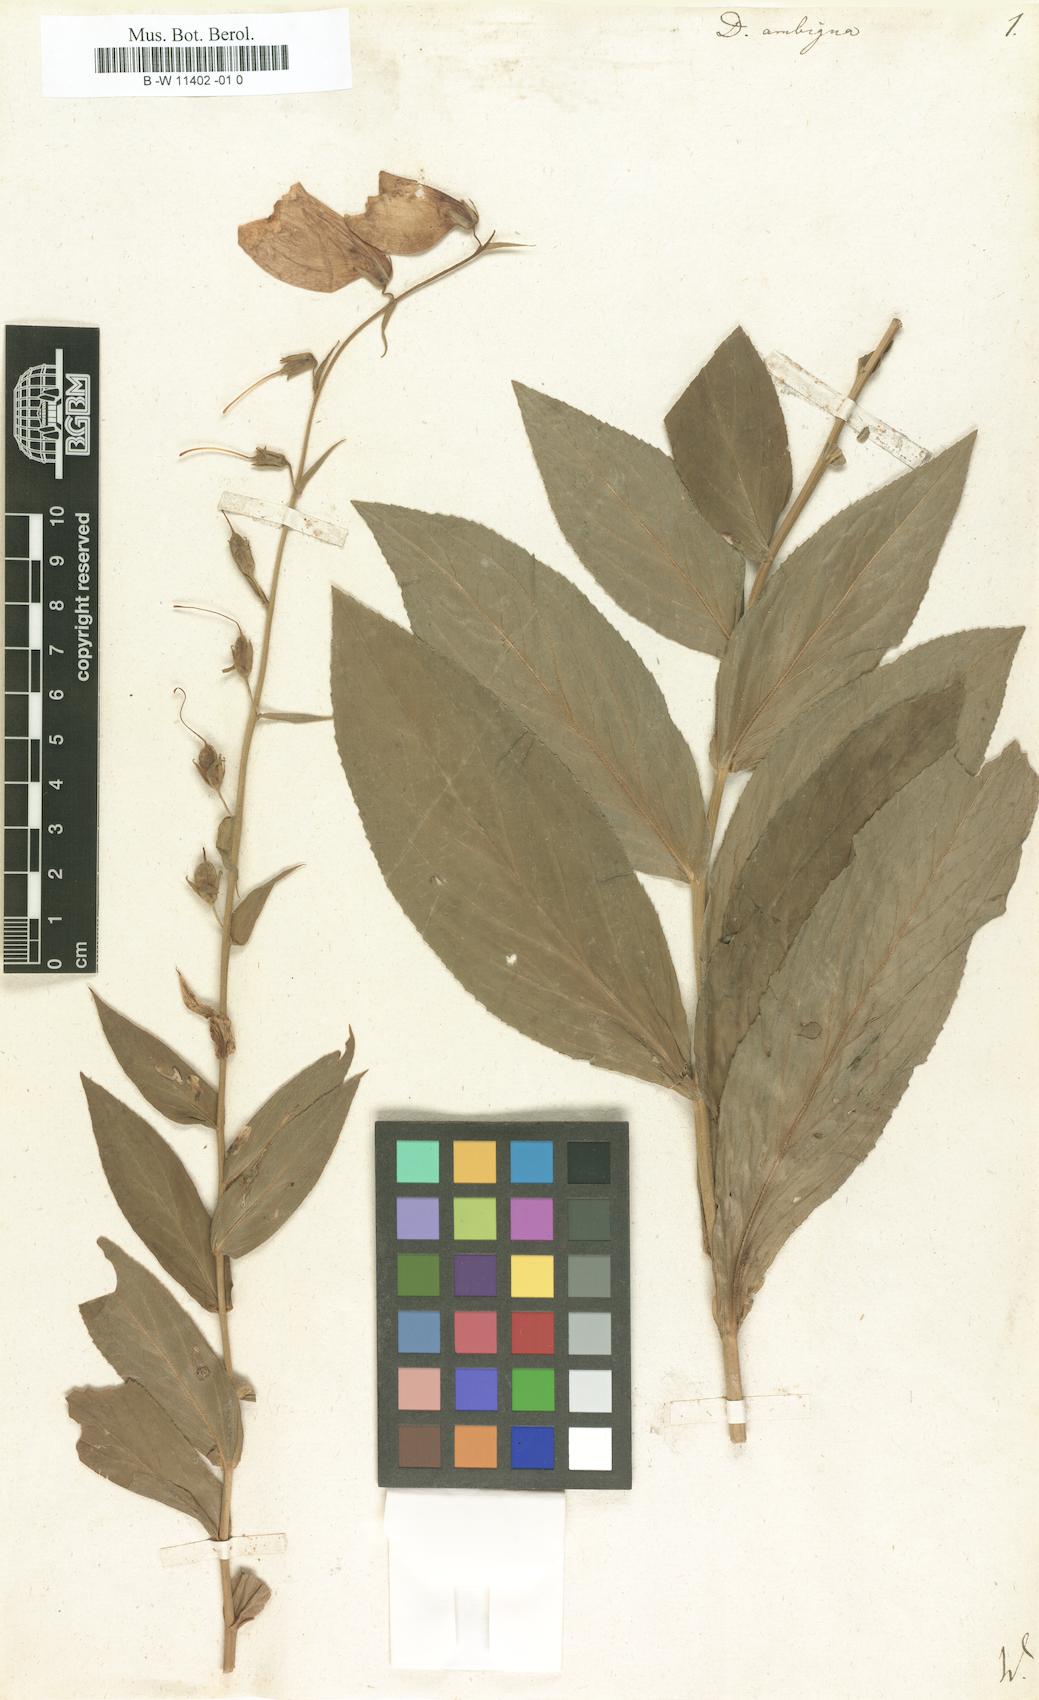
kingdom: Plantae
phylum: Tracheophyta
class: Magnoliopsida
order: Lamiales
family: Plantaginaceae
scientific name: Plantaginaceae
